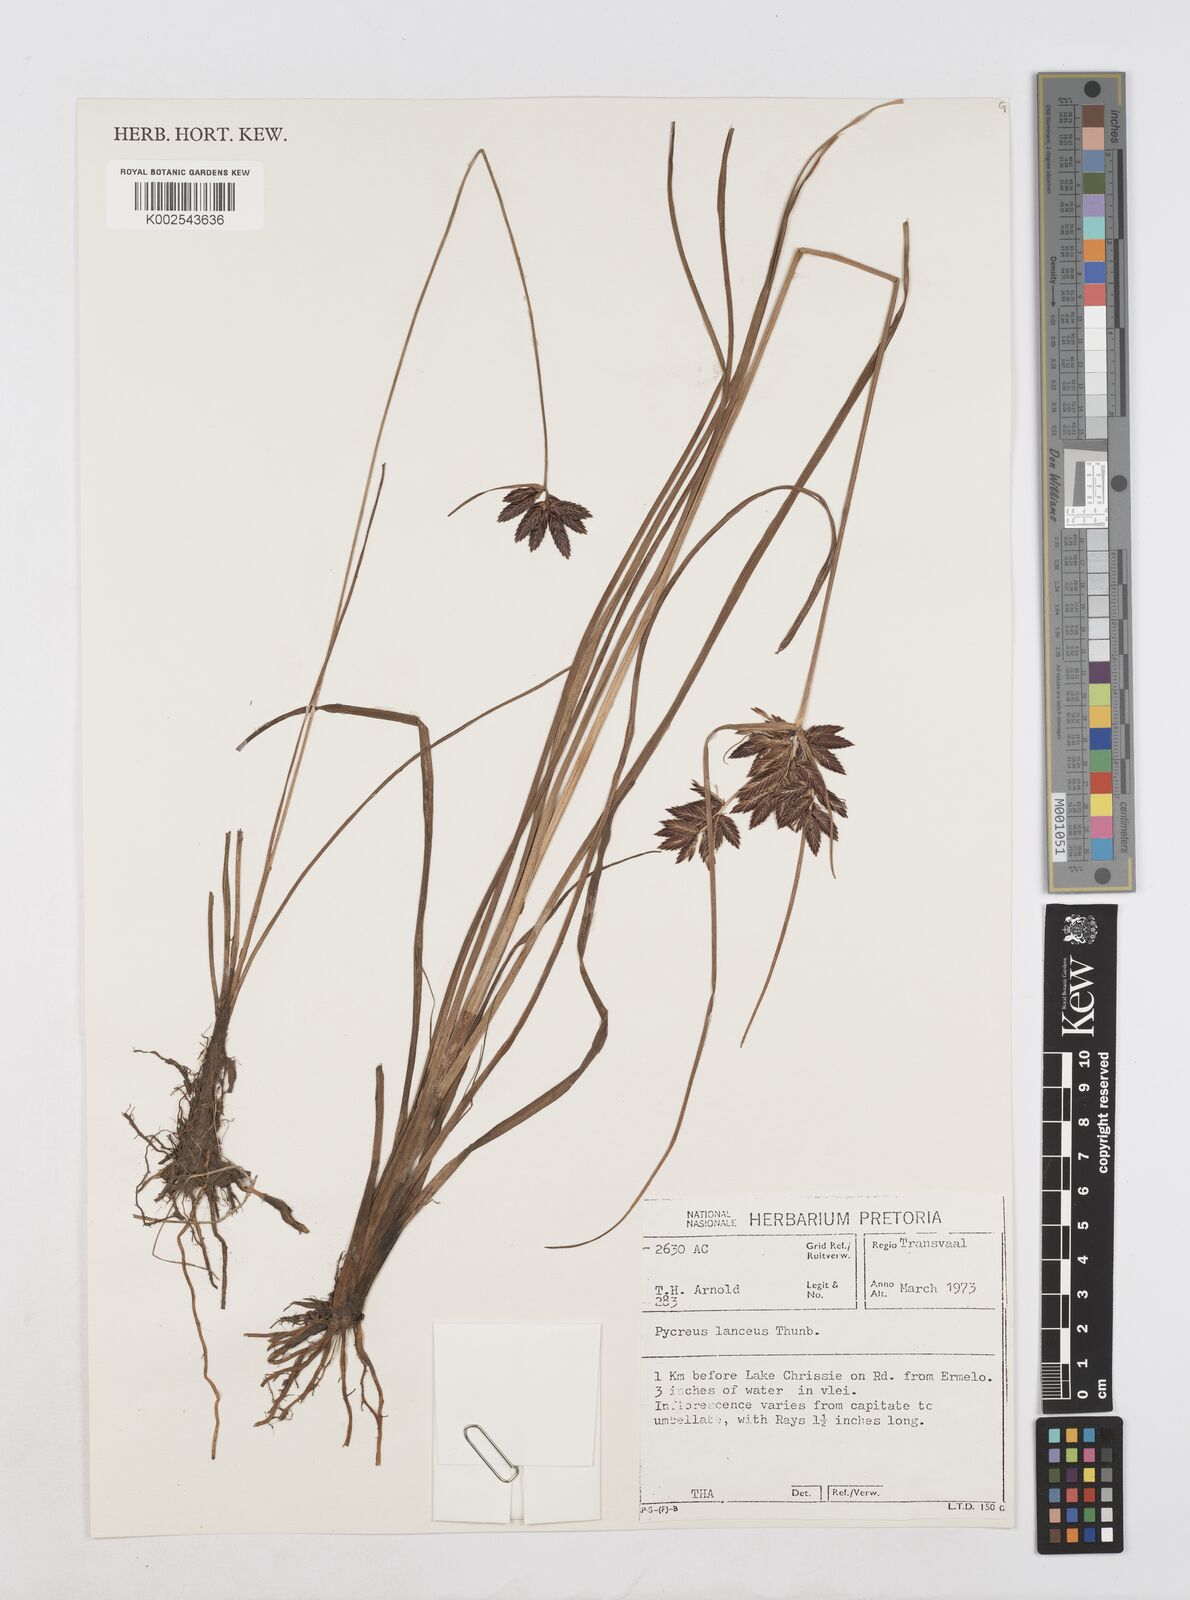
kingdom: Plantae
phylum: Tracheophyta
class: Liliopsida
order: Poales
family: Cyperaceae
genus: Cyperus
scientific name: Cyperus nitidus
